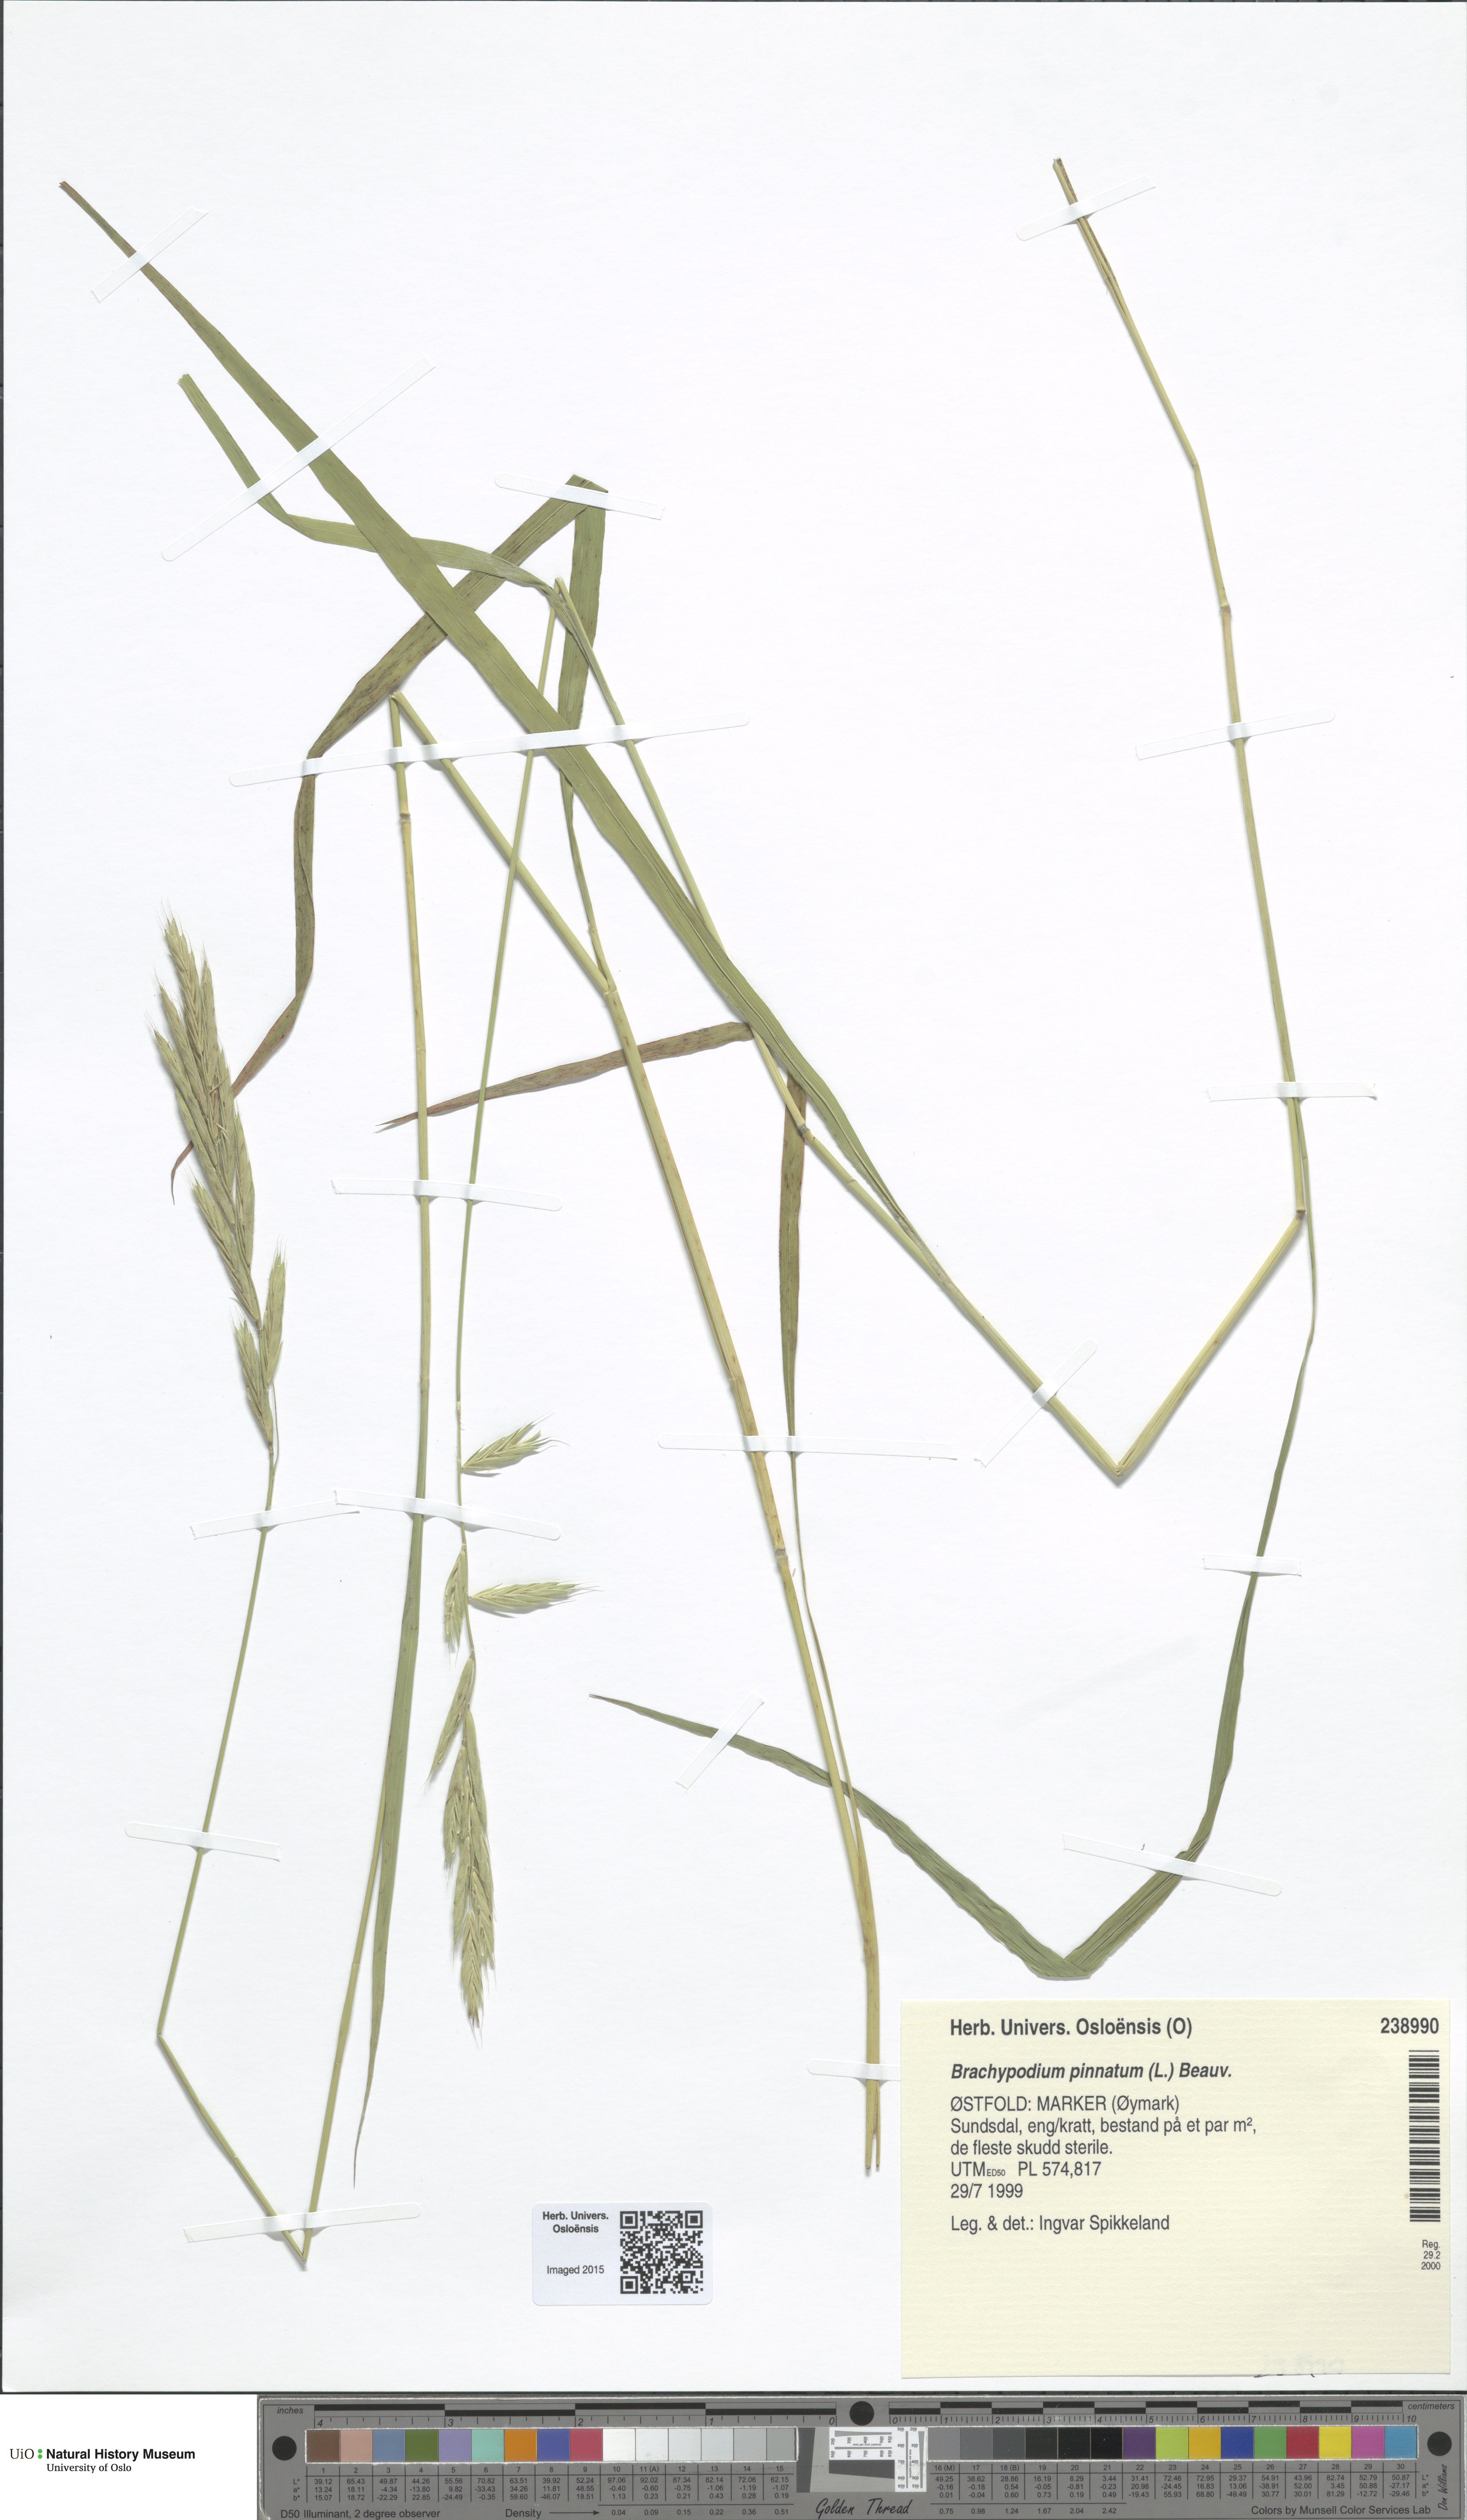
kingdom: Plantae
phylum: Tracheophyta
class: Liliopsida
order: Poales
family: Poaceae
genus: Brachypodium
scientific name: Brachypodium pinnatum
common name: Tor grass
